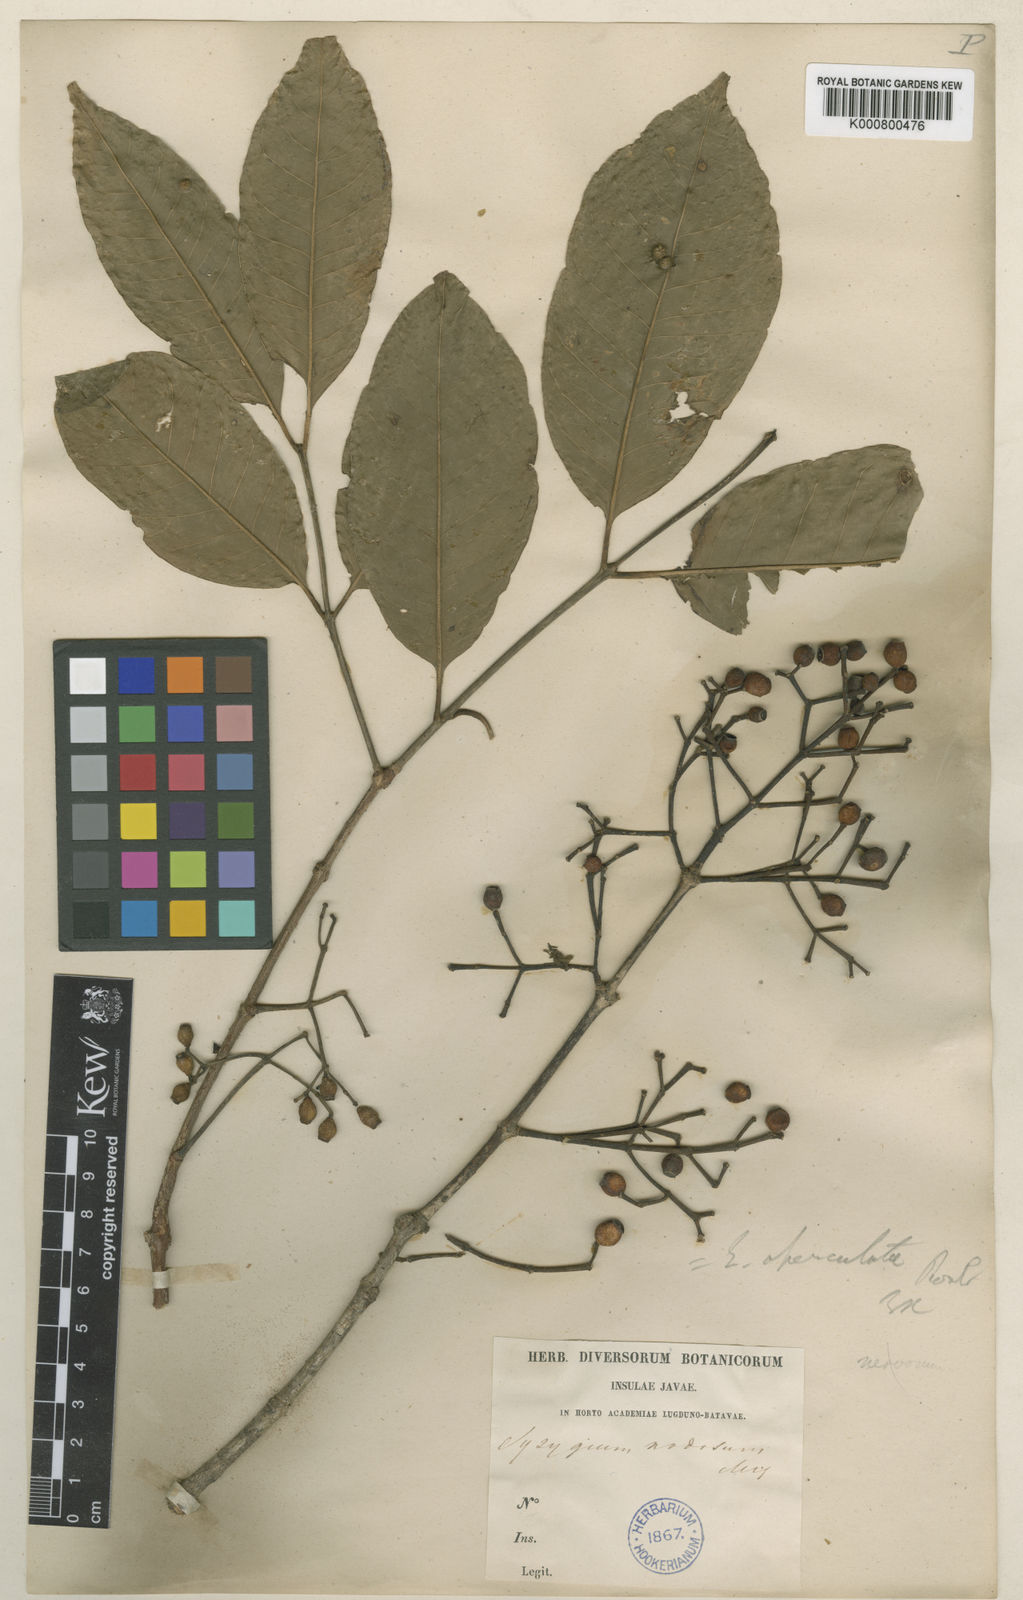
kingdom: Plantae
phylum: Tracheophyta
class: Magnoliopsida
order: Myrtales
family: Myrtaceae
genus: Syzygium
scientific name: Syzygium nervosum
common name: Daly river satinash
